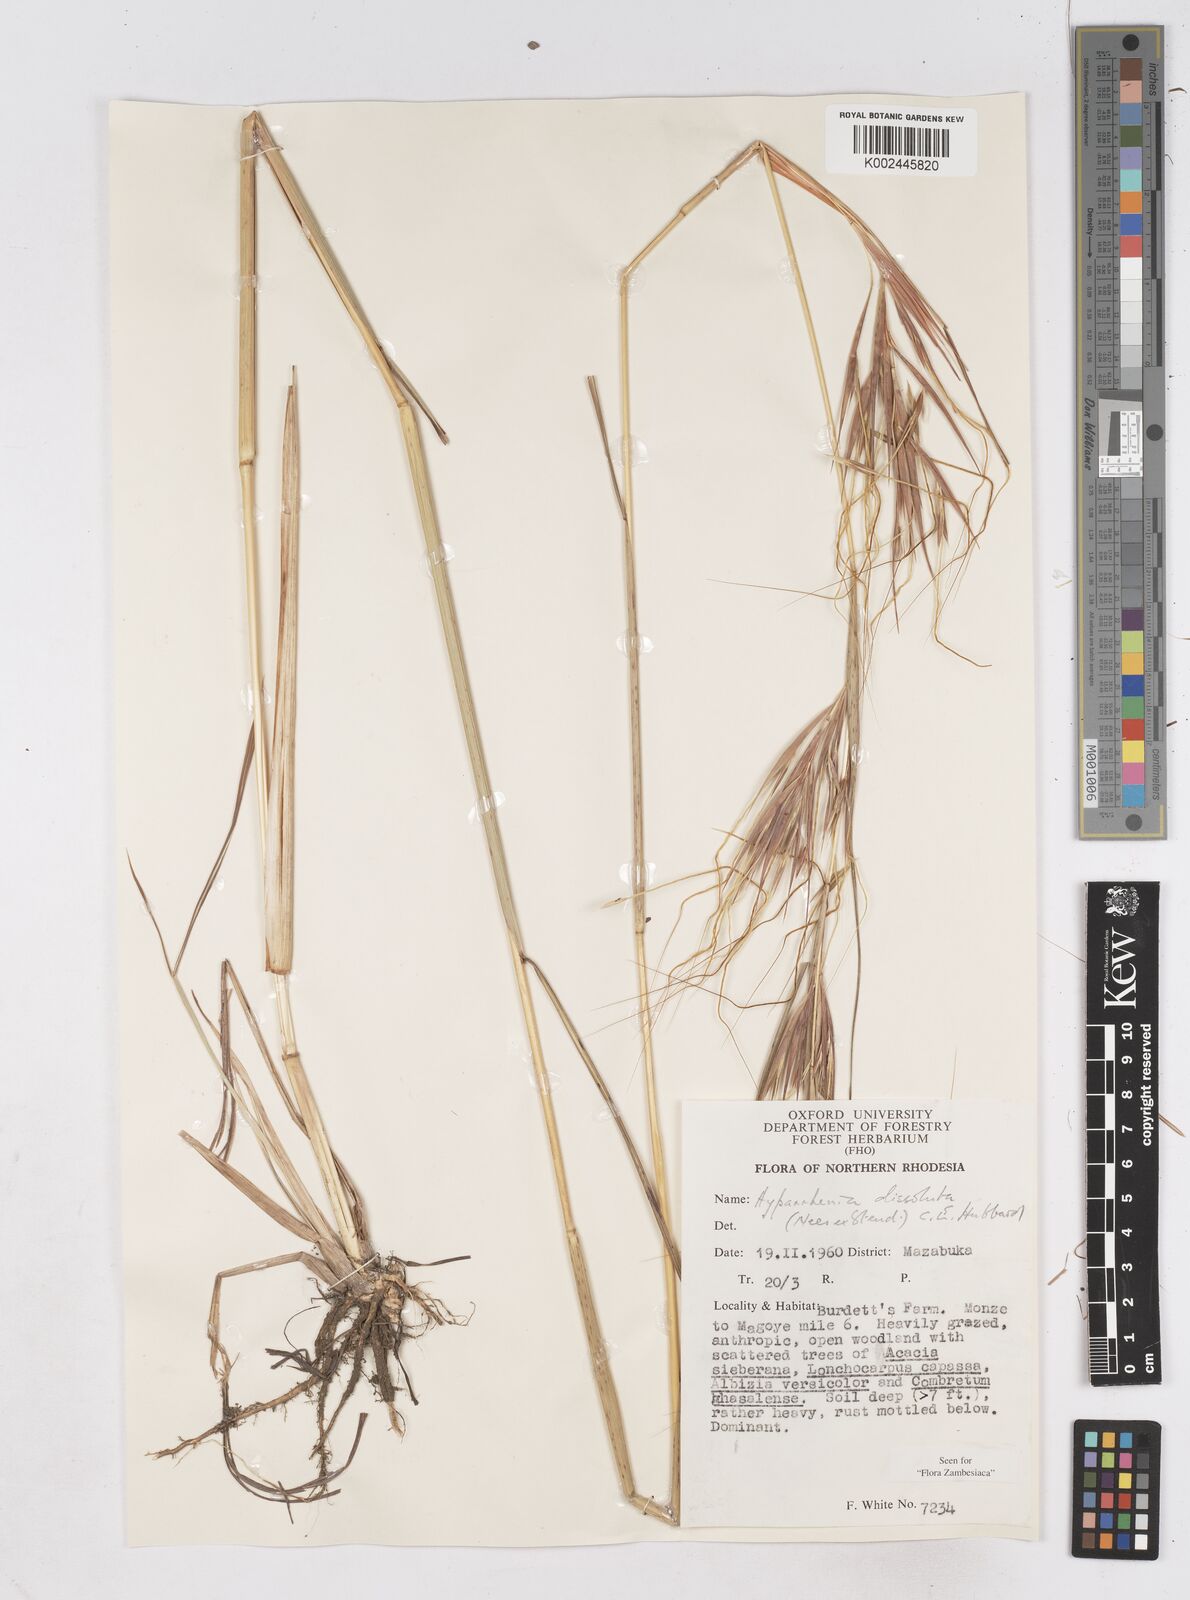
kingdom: Plantae
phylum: Tracheophyta
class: Liliopsida
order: Poales
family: Poaceae
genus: Hyperthelia
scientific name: Hyperthelia dissoluta
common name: Yellow thatching grass
